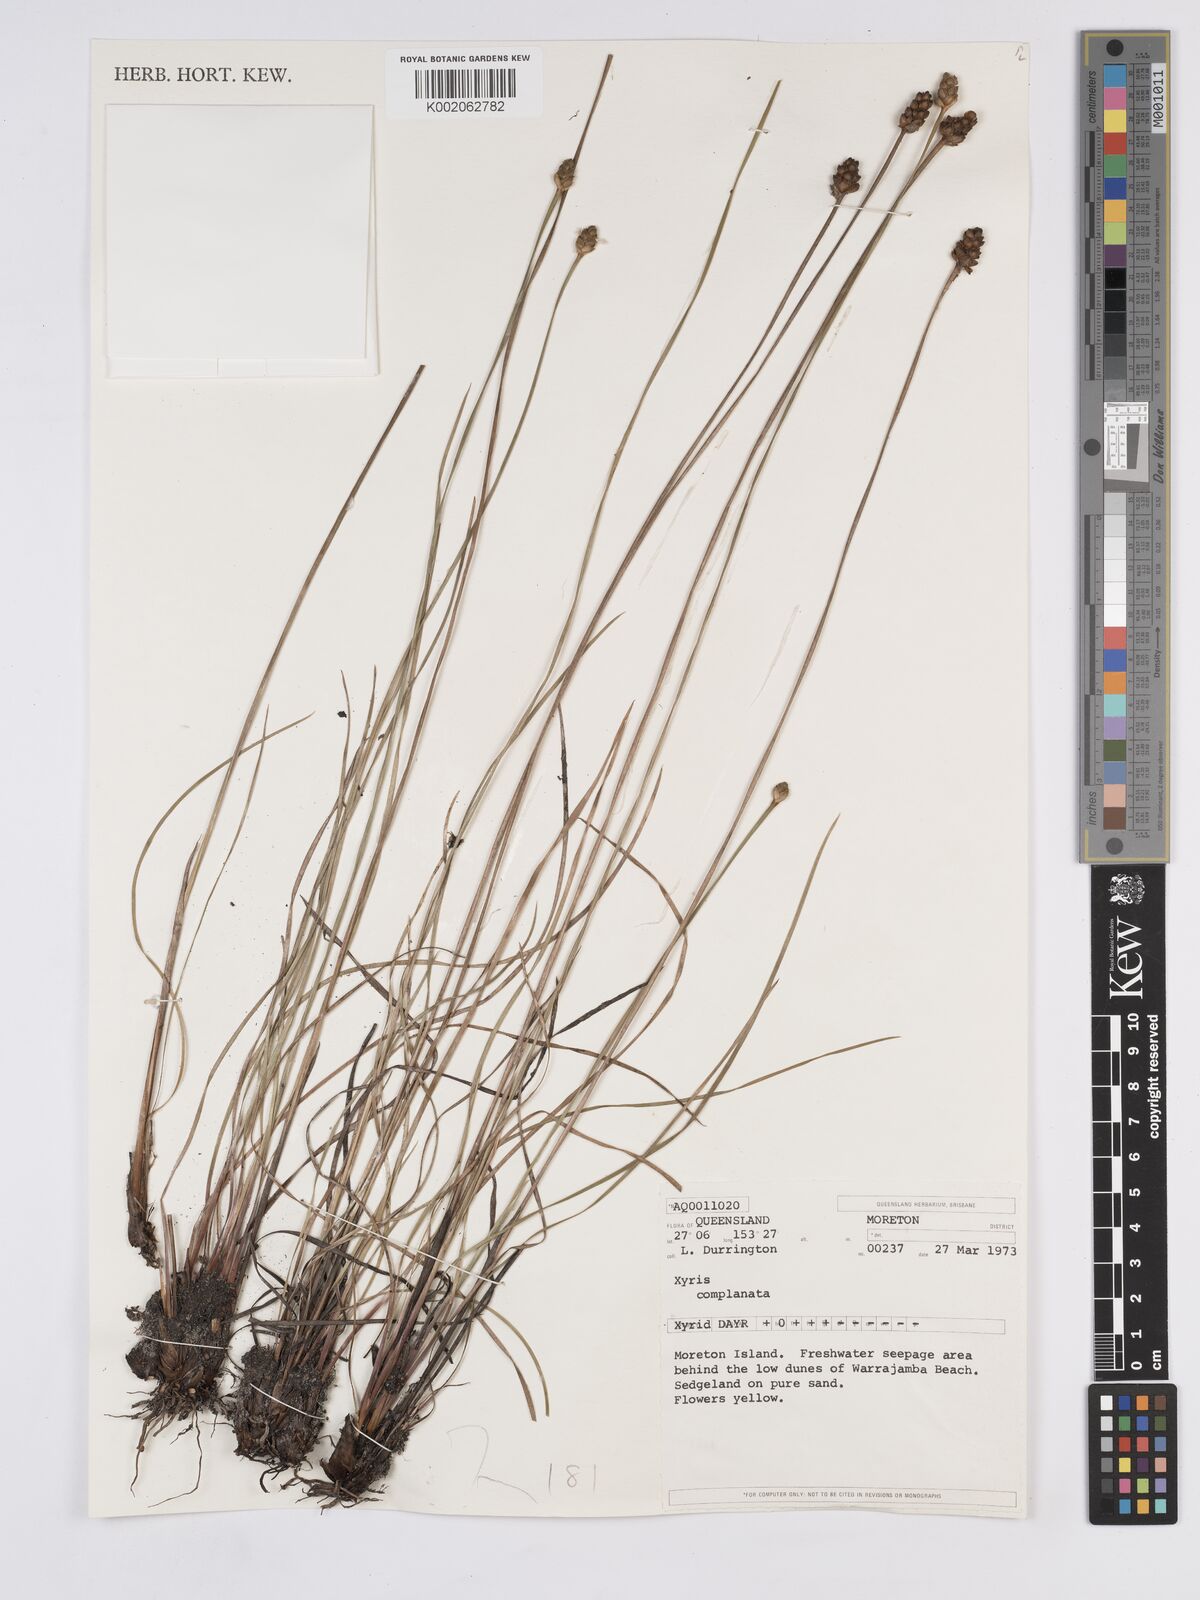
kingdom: Plantae
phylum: Tracheophyta
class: Liliopsida
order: Poales
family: Xyridaceae
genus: Xyris
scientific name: Xyris complanata
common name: Hawai'i yelloweyed grass
